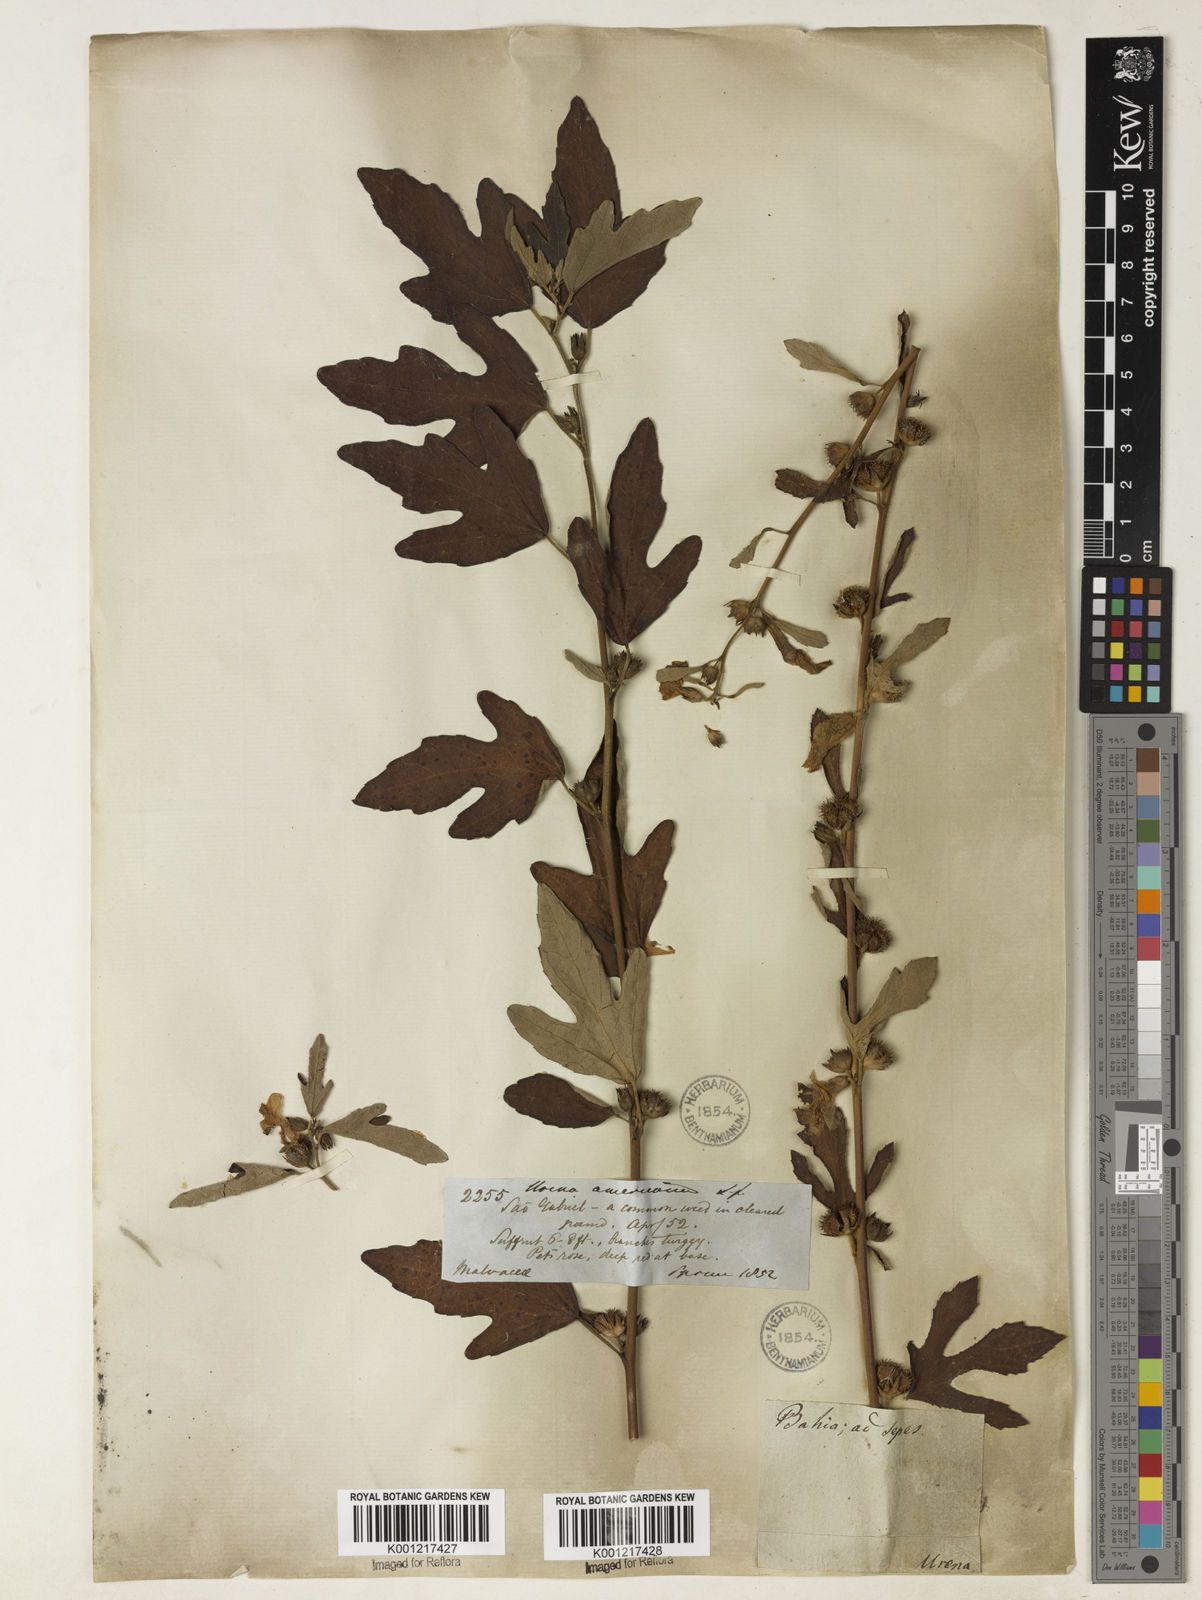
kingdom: Plantae
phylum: Tracheophyta
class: Magnoliopsida
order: Malvales
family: Malvaceae
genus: Urena
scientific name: Urena lobata
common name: Caesarweed
